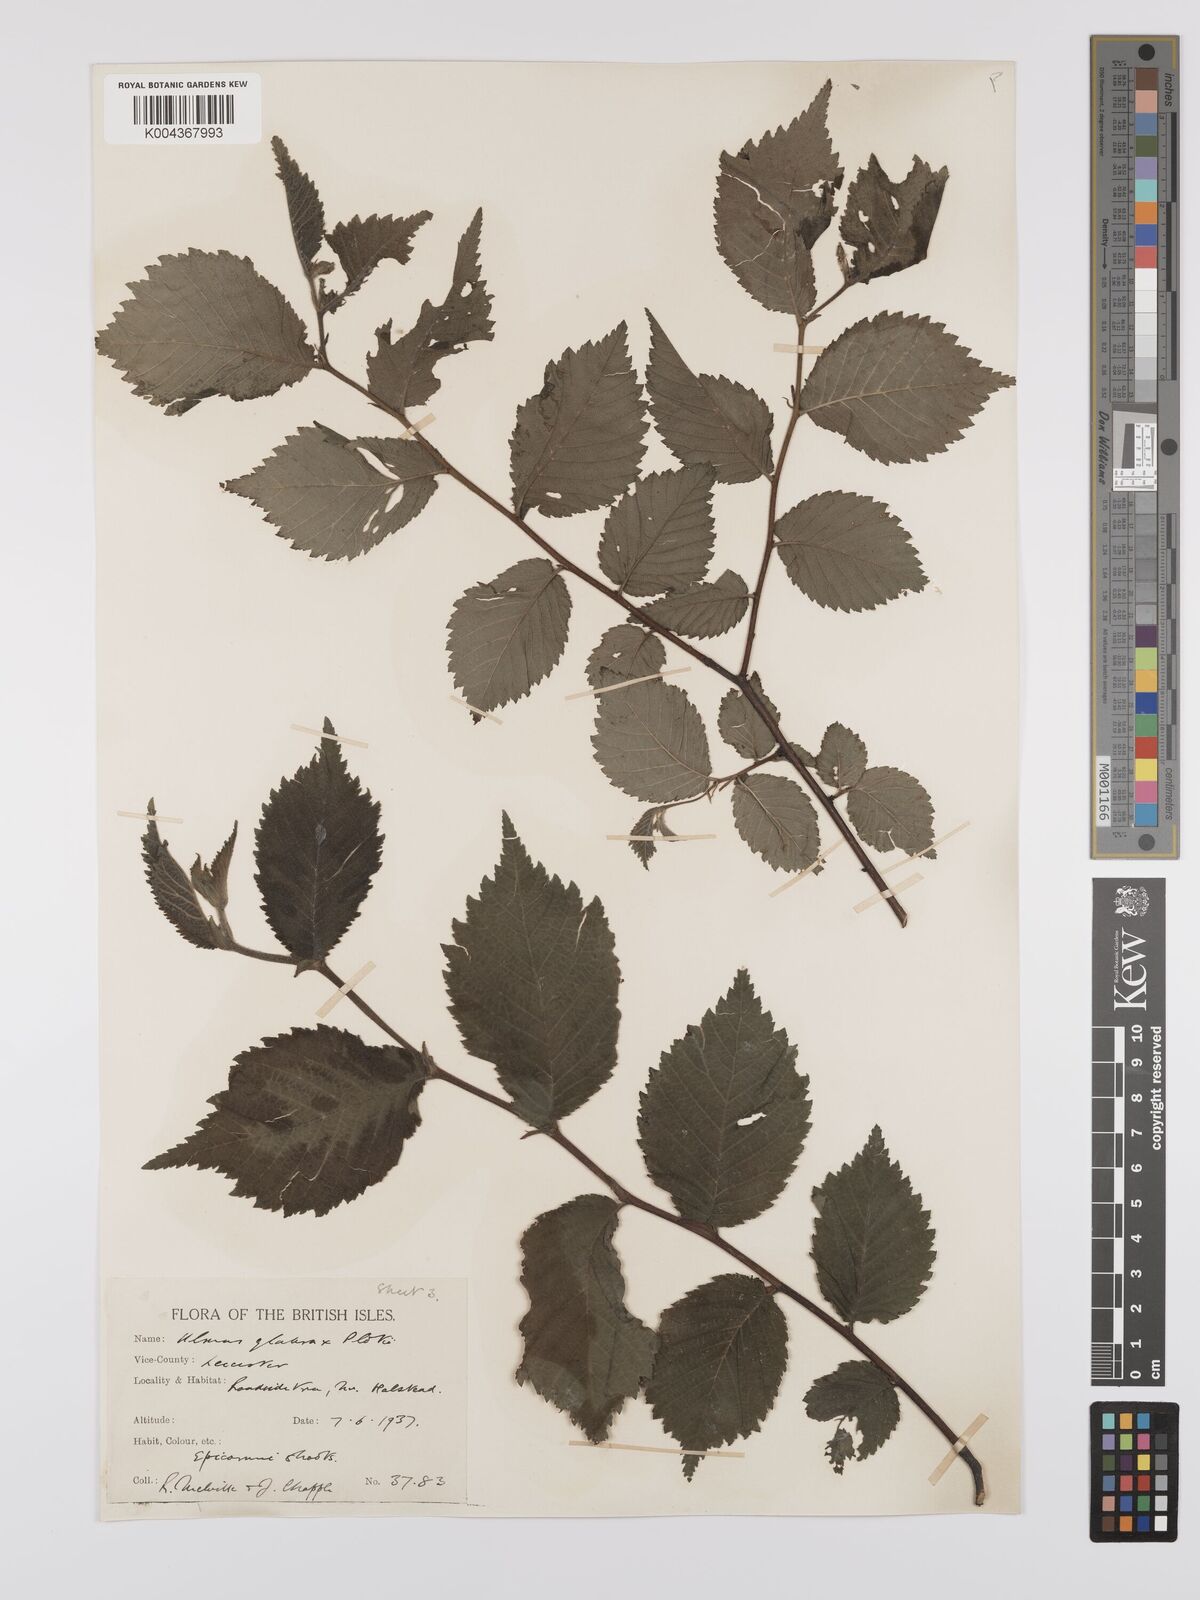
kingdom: Plantae
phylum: Tracheophyta
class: Magnoliopsida
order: Rosales
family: Ulmaceae
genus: Ulmus
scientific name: Ulmus
